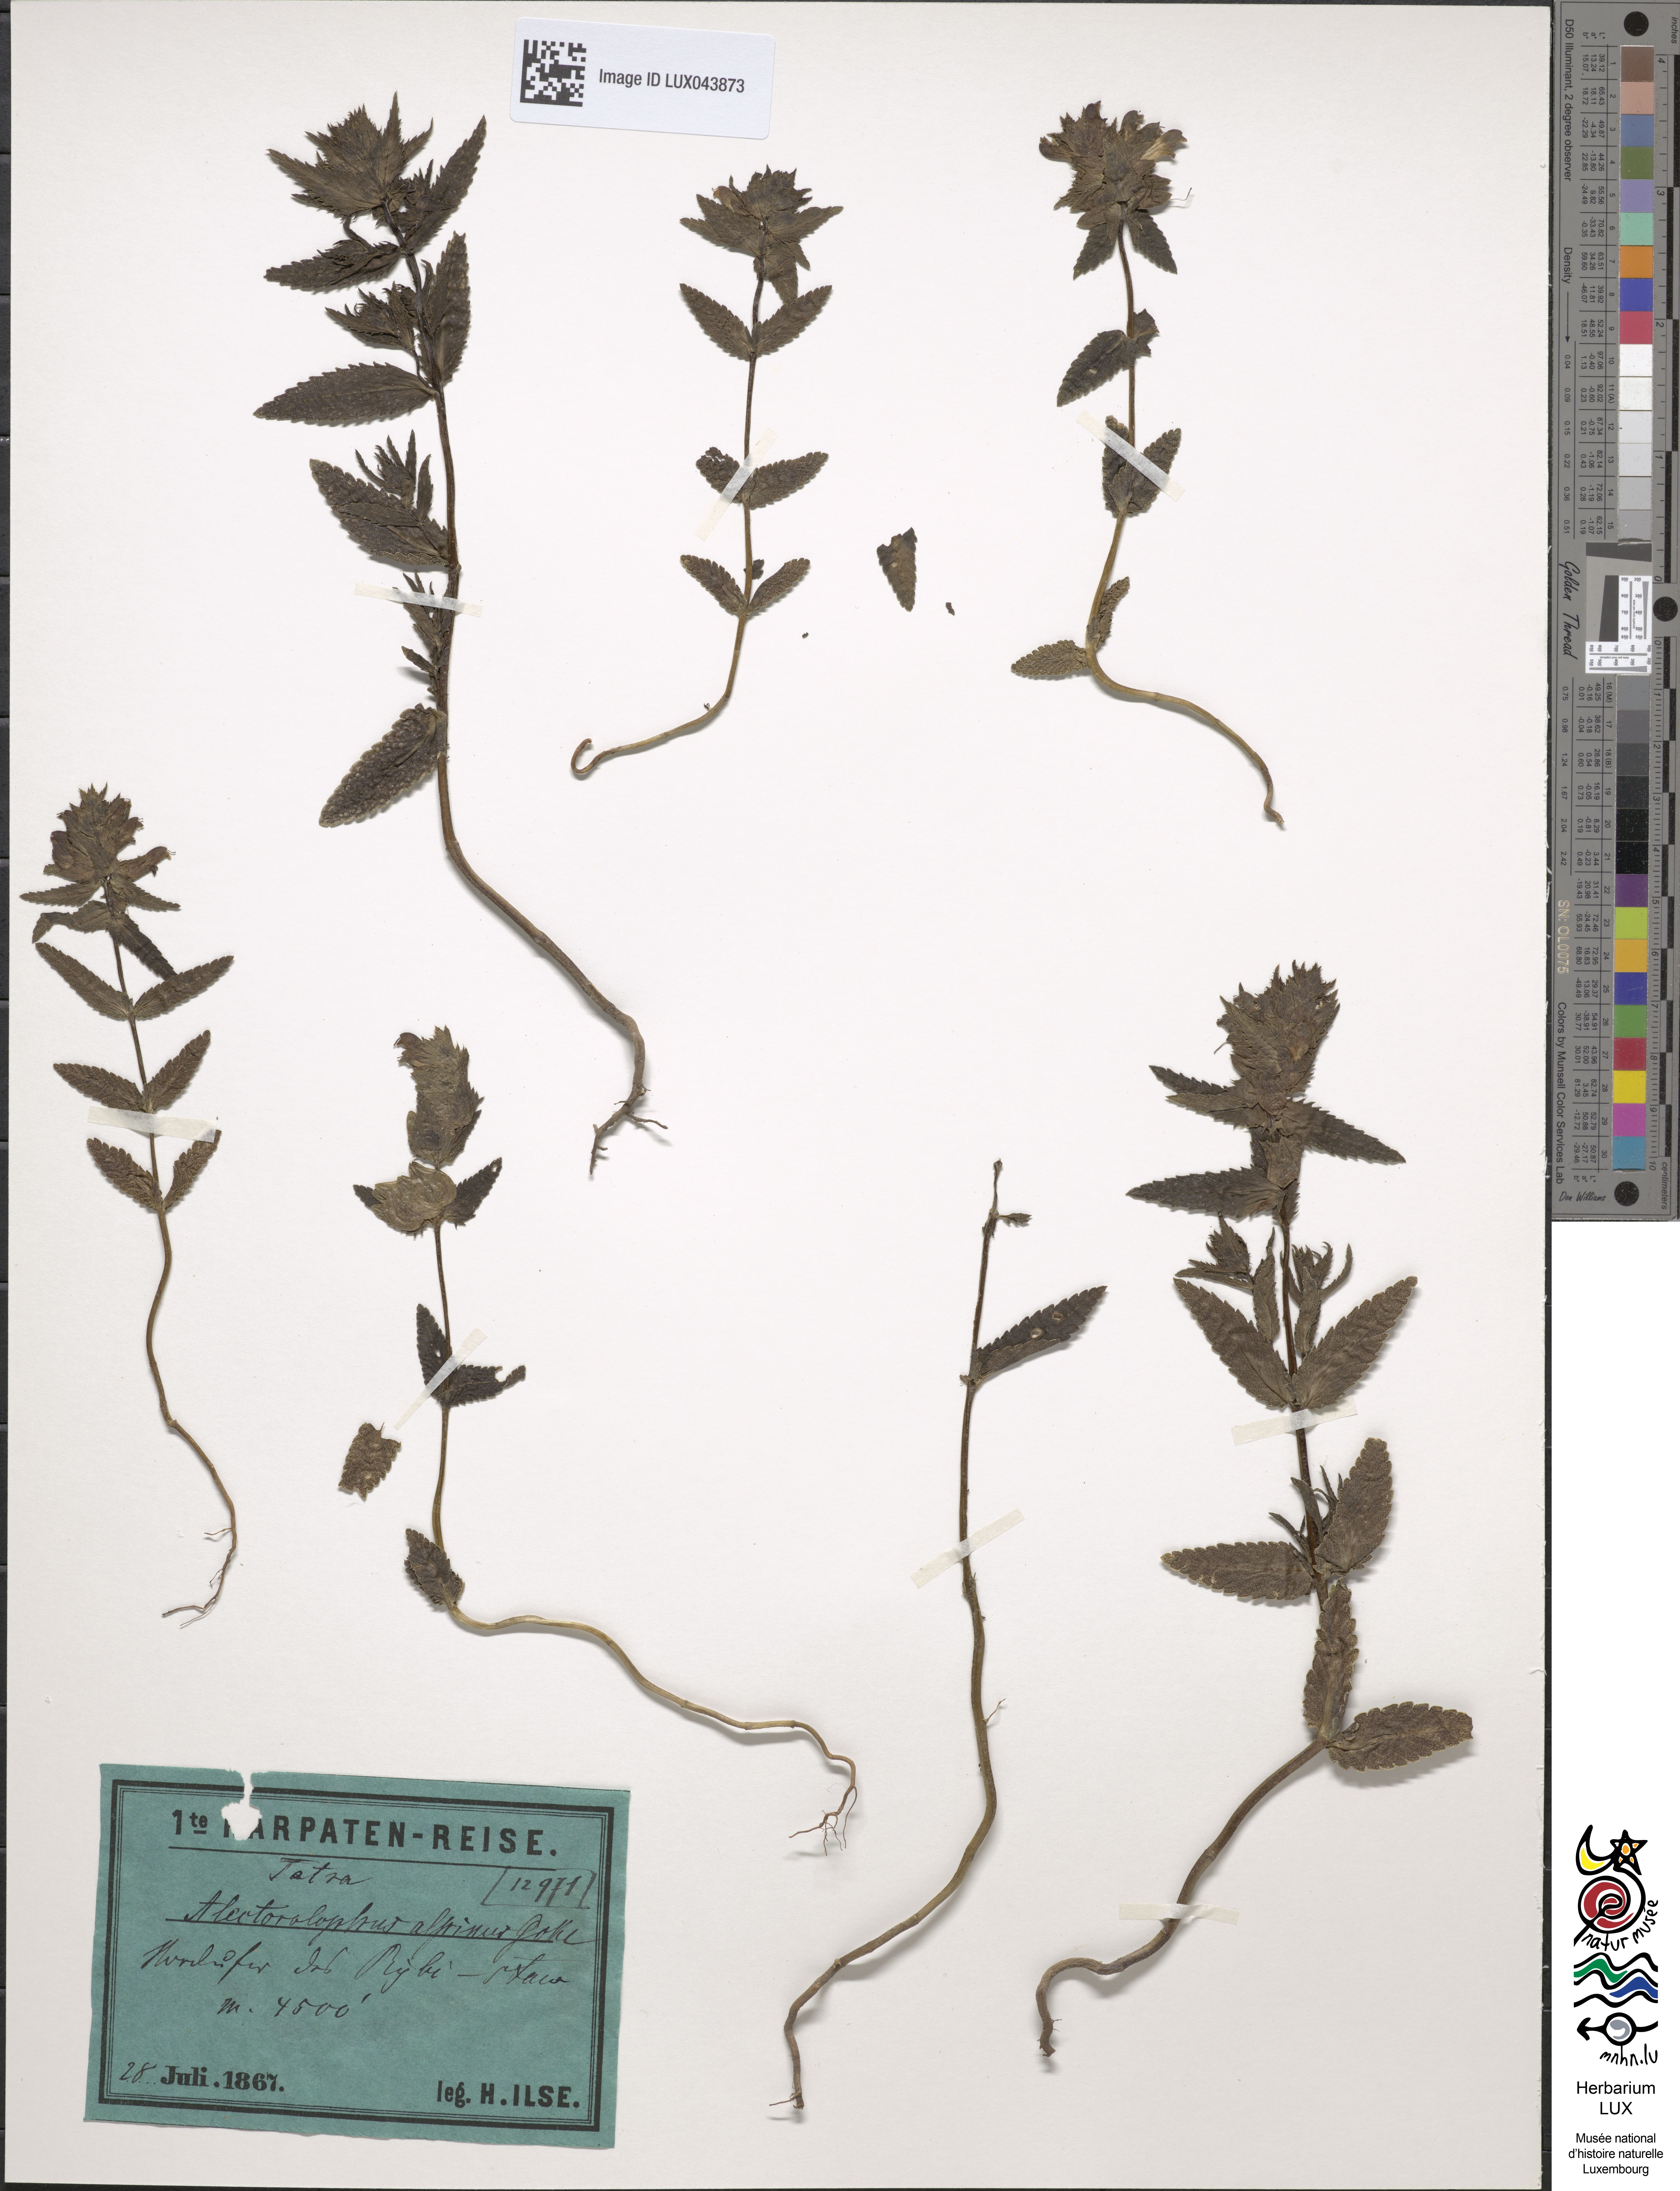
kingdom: Plantae
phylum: Tracheophyta
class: Magnoliopsida
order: Lamiales
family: Orobanchaceae
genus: Rhinanthus
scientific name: Rhinanthus riphaeus
